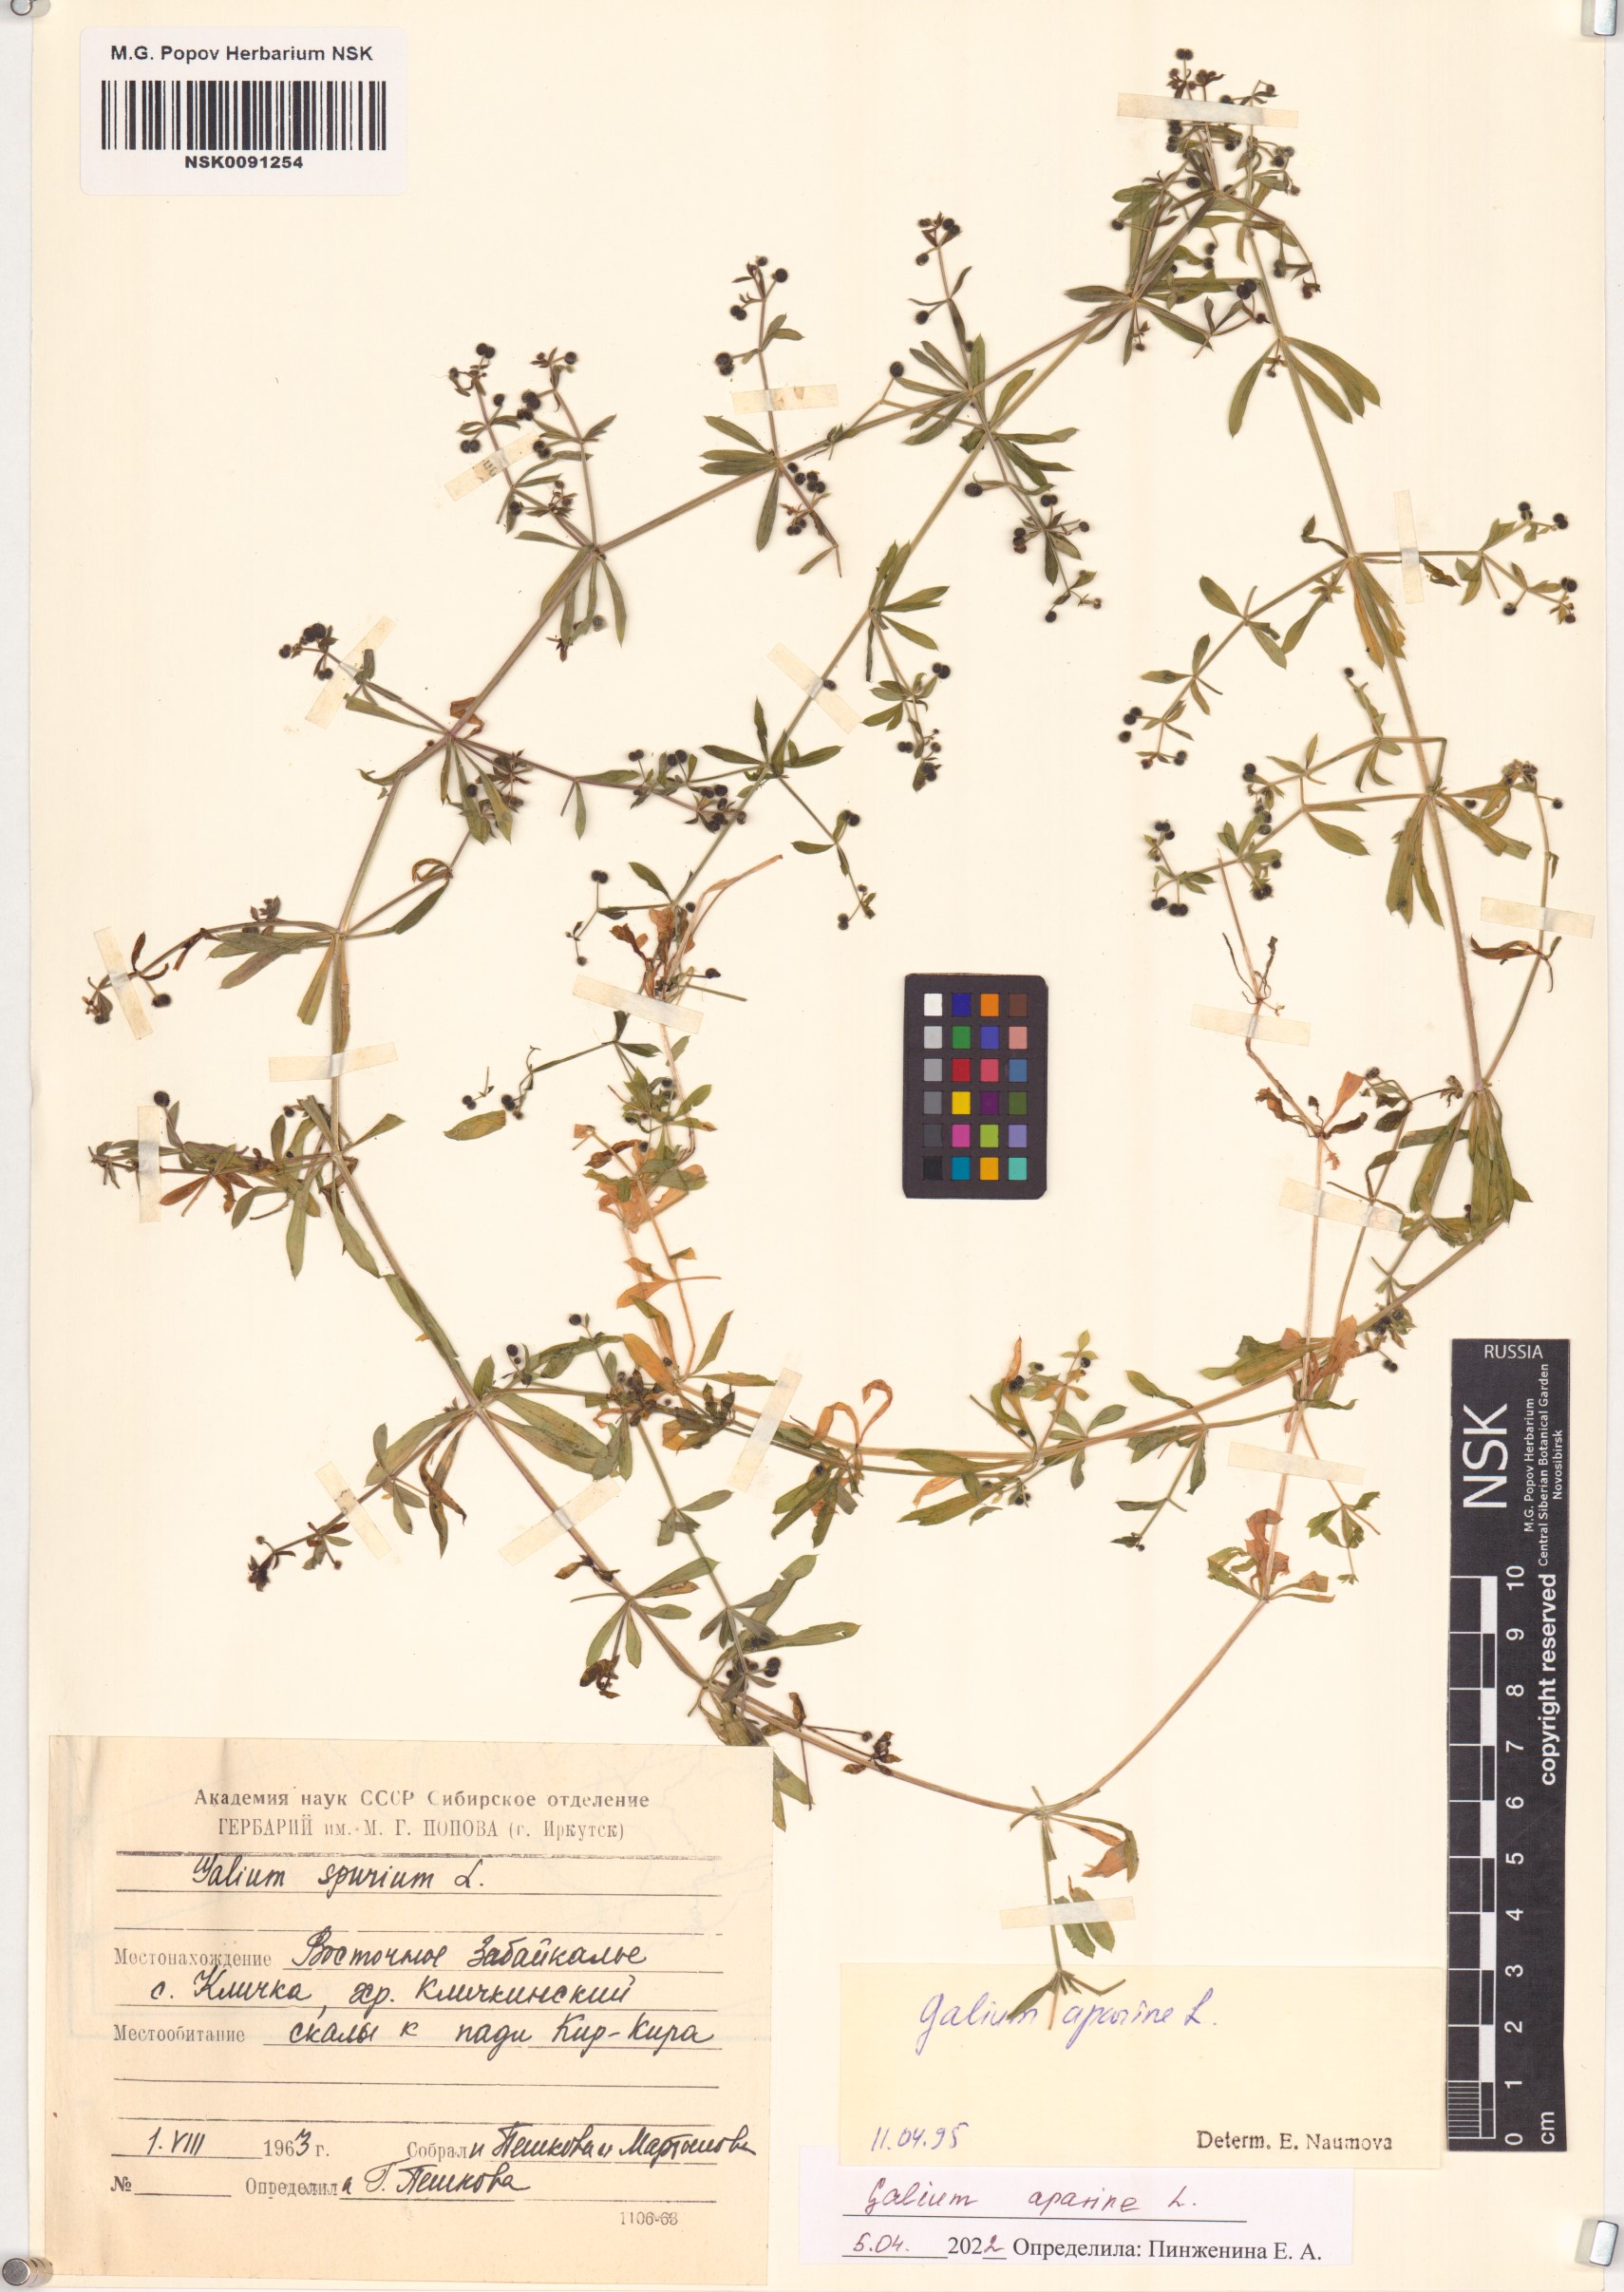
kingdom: Plantae
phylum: Tracheophyta
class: Magnoliopsida
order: Gentianales
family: Rubiaceae
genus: Galium
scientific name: Galium aparine
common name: Cleavers
